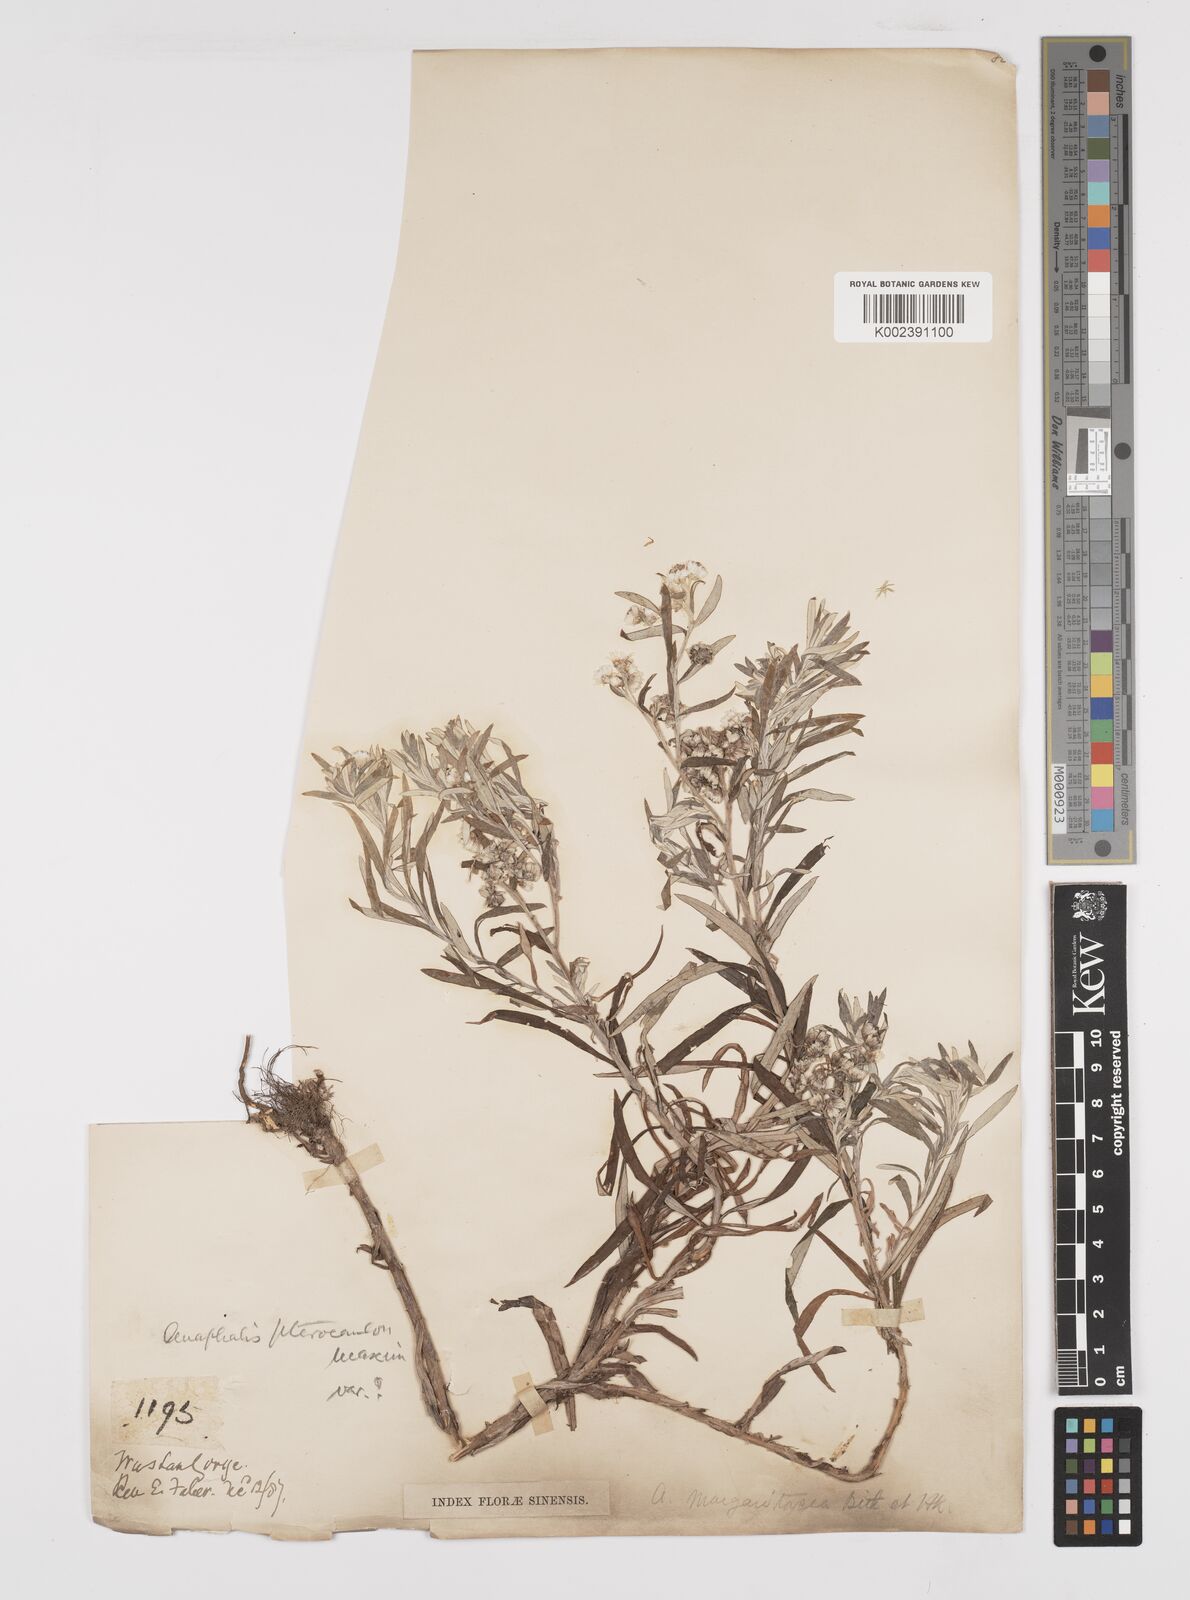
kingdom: Plantae
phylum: Tracheophyta
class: Magnoliopsida
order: Asterales
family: Asteraceae
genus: Anaphalis
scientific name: Anaphalis margaritacea
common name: Pearly everlasting
